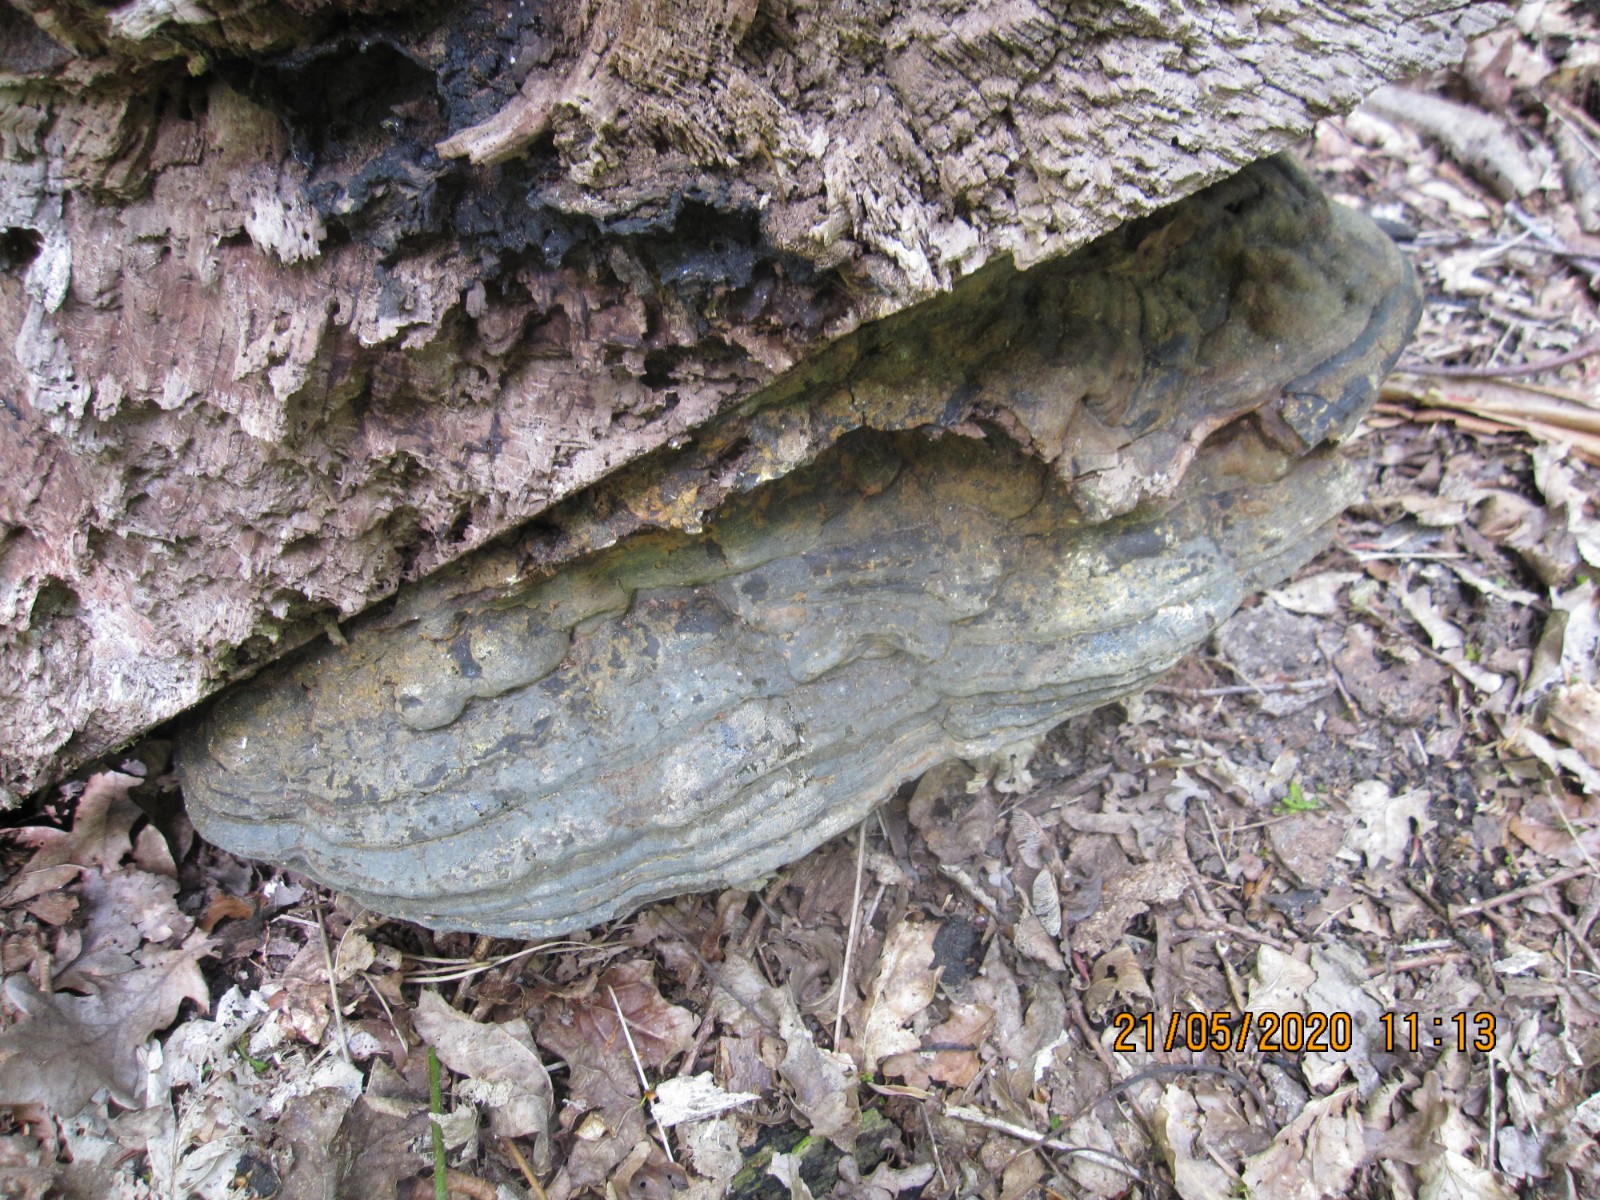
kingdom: Fungi
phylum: Basidiomycota
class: Agaricomycetes
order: Polyporales
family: Polyporaceae
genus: Ganoderma
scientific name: Ganoderma pfeifferi
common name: kobberrød lakporesvamp
